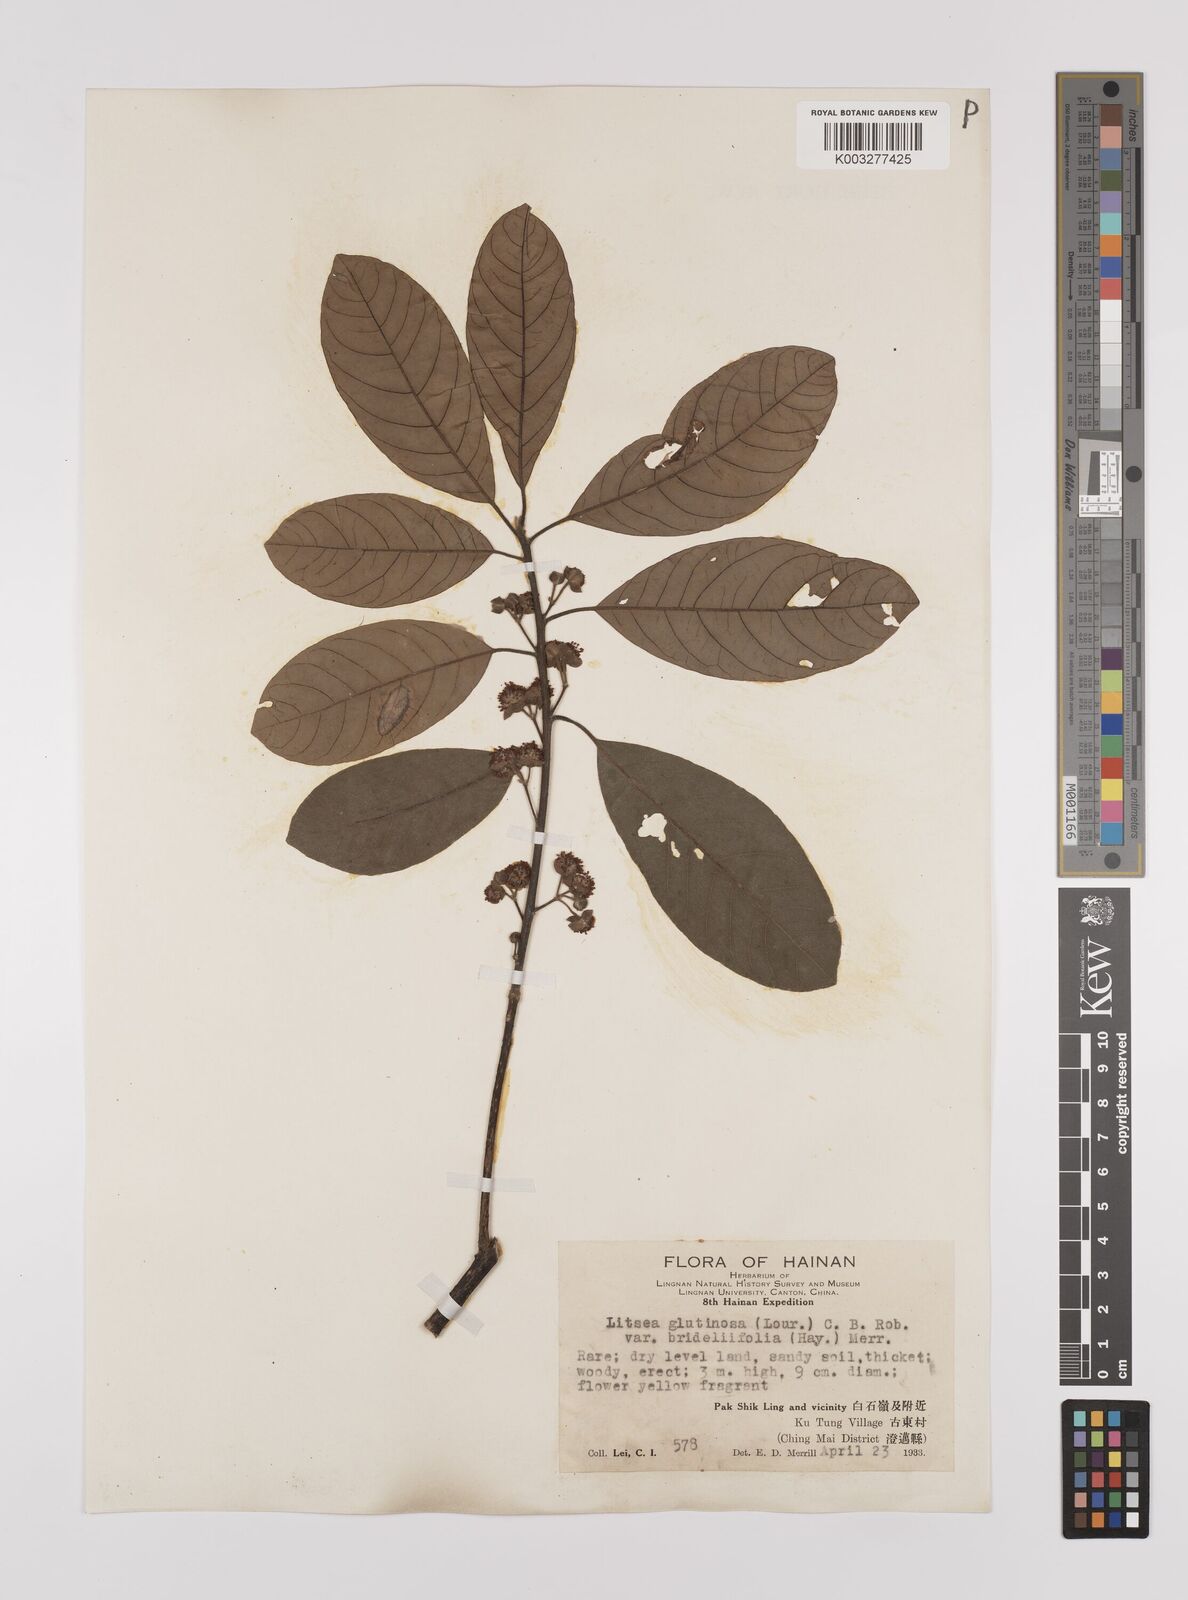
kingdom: Plantae
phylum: Tracheophyta
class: Magnoliopsida
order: Laurales
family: Lauraceae
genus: Litsea
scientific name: Litsea glutinosa
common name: Indian-laurel
